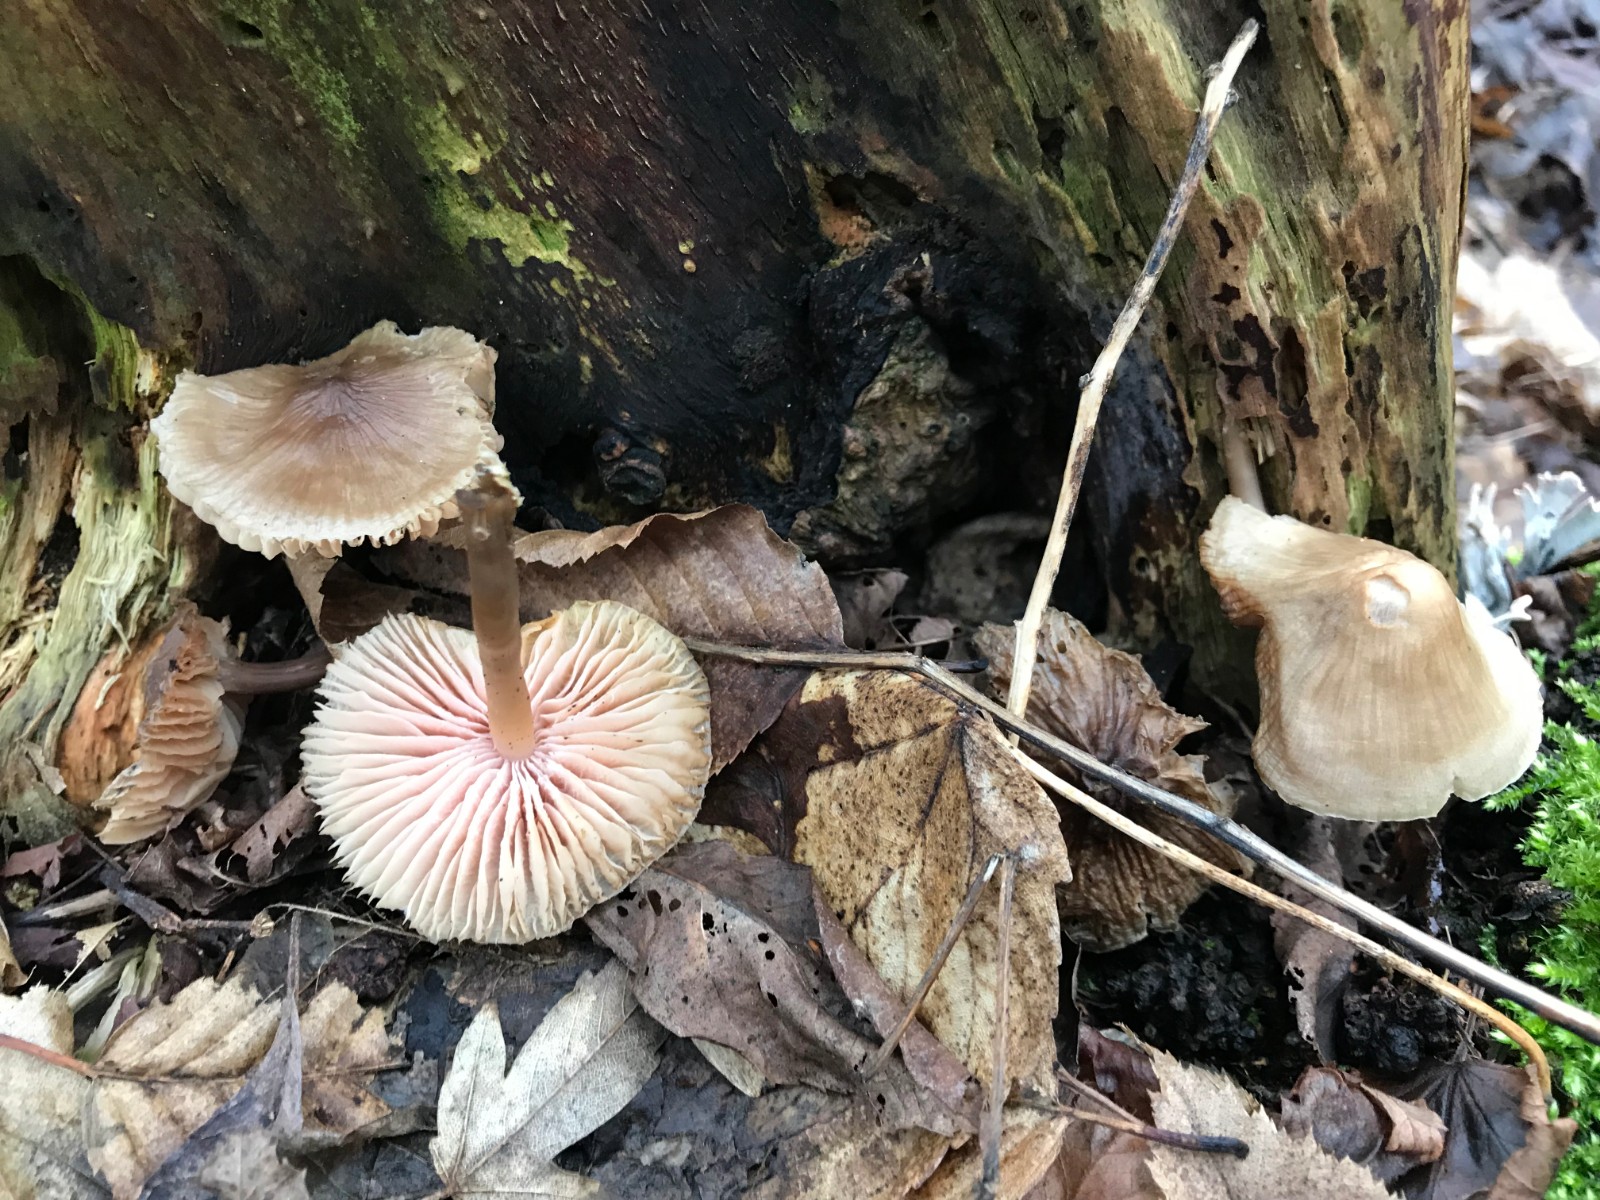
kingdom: Fungi
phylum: Basidiomycota
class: Agaricomycetes
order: Agaricales
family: Mycenaceae
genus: Mycena
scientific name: Mycena galericulata
